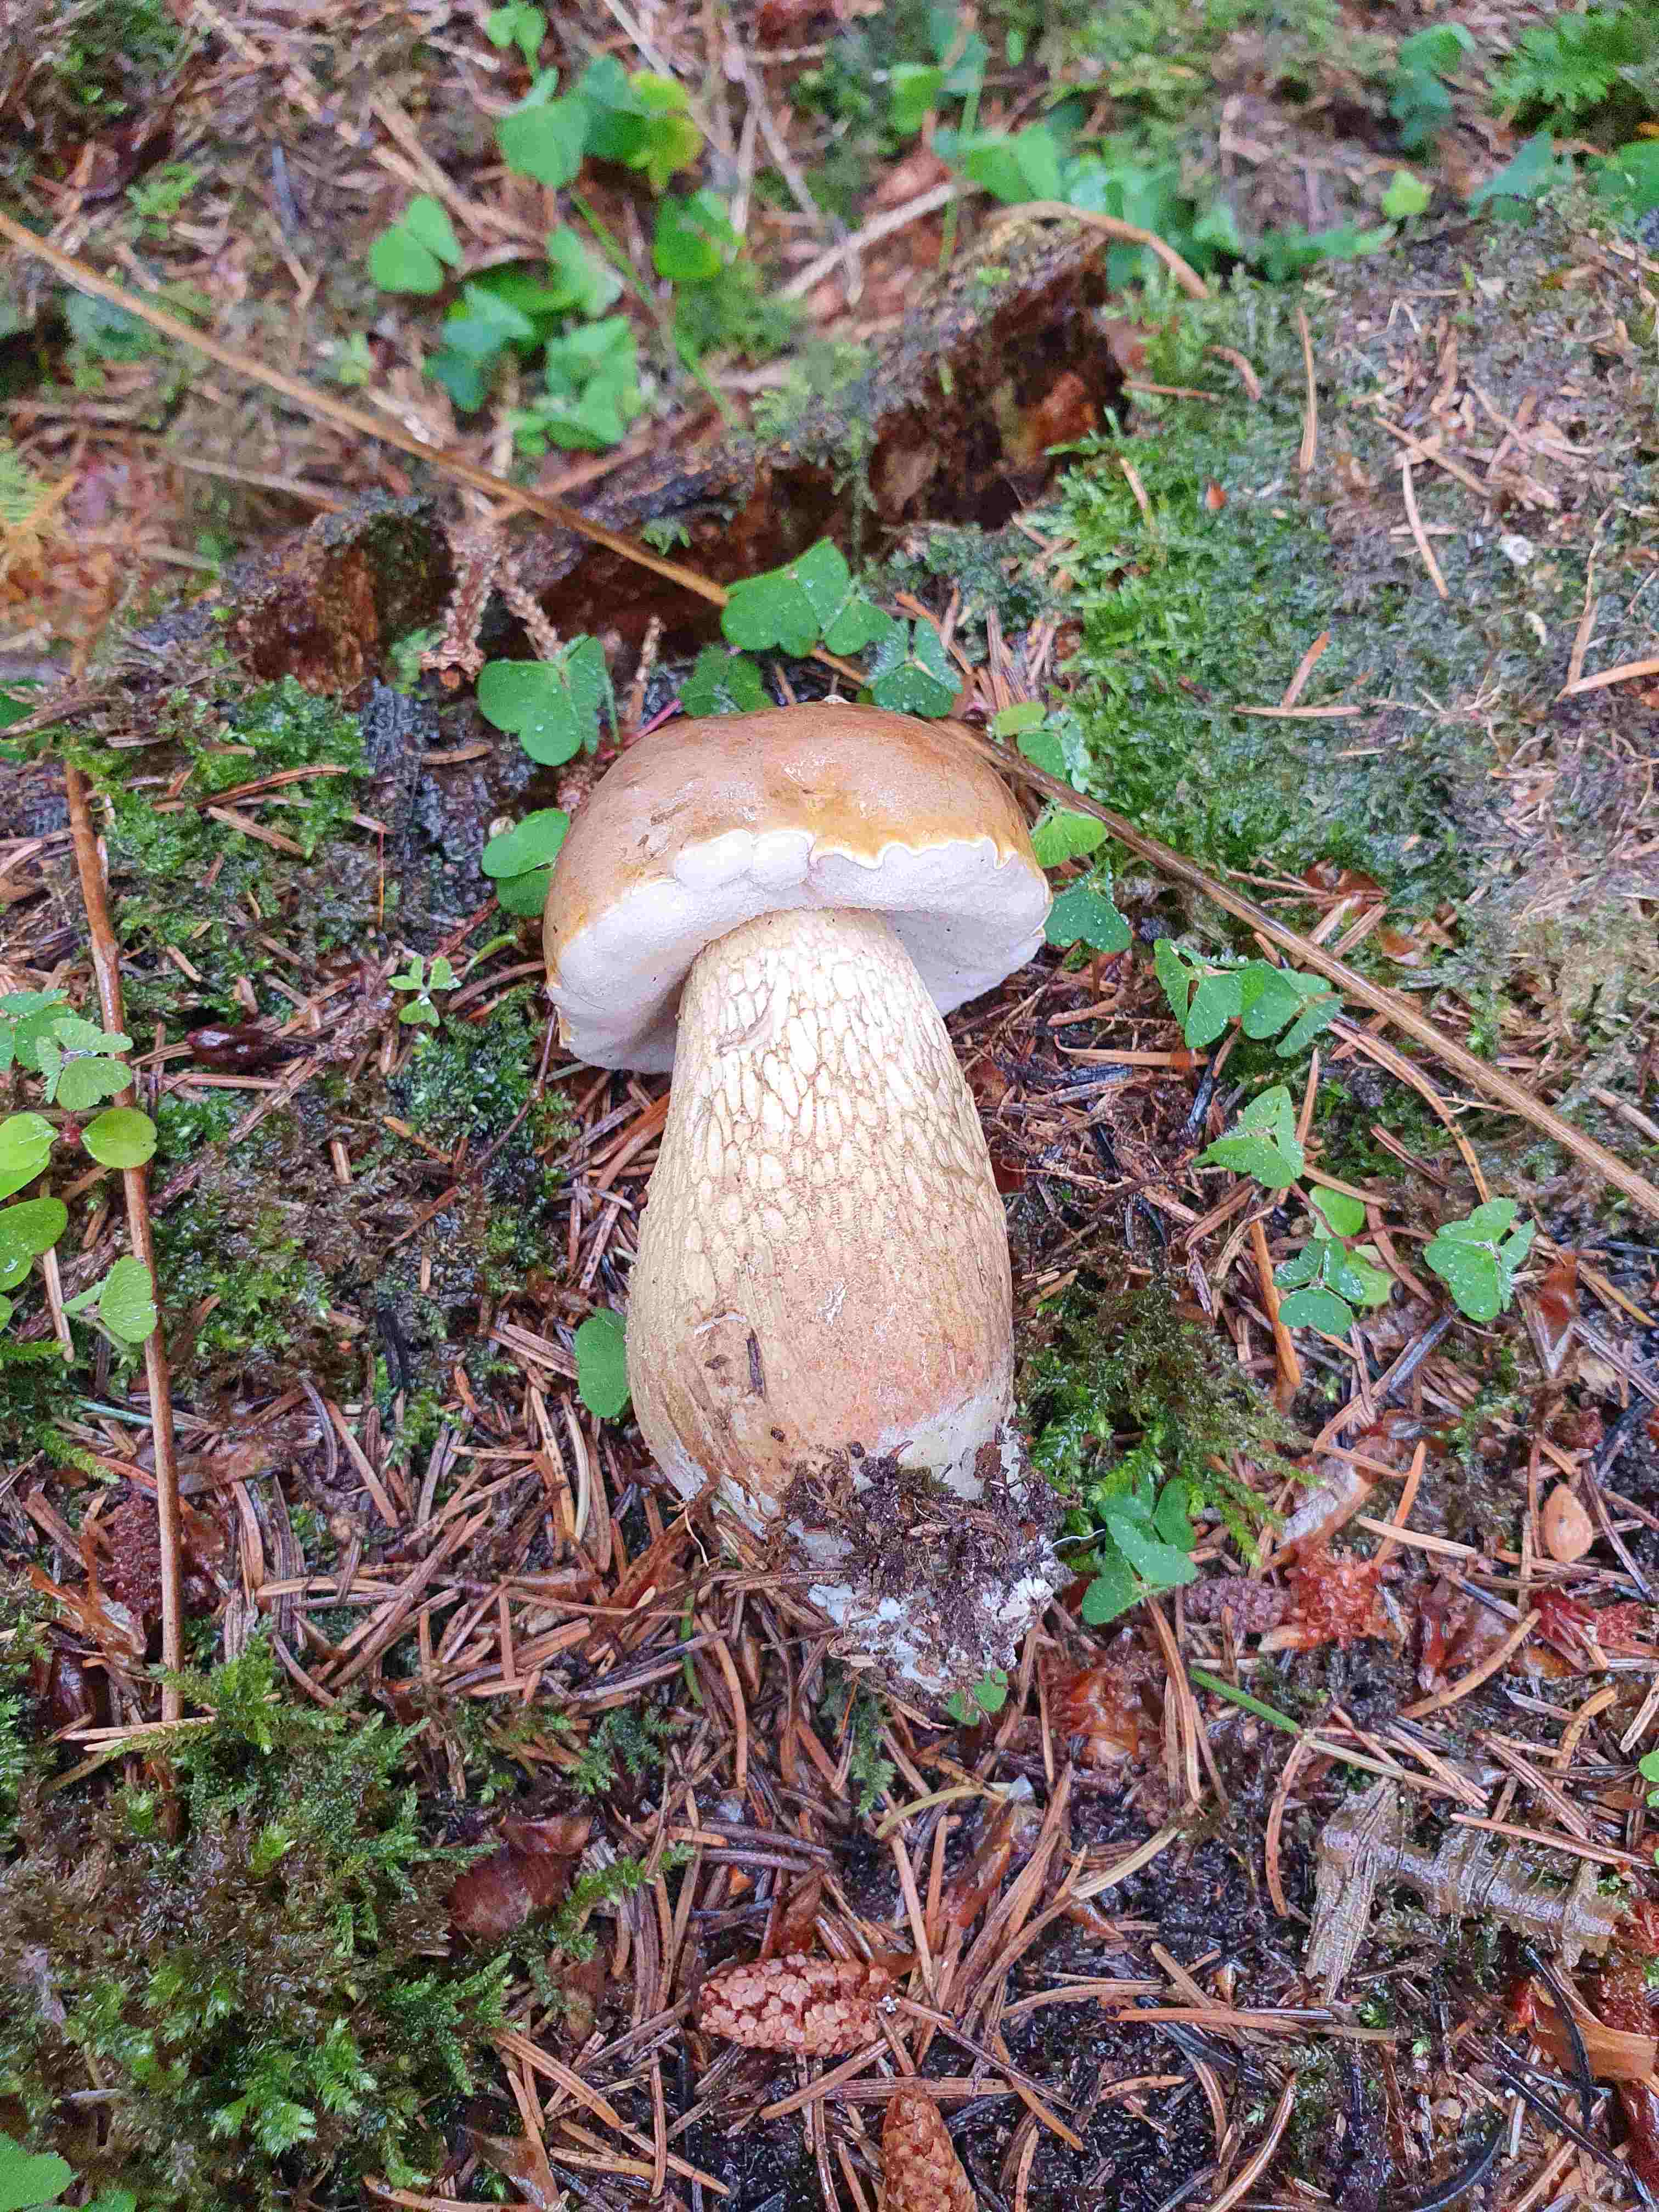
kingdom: Fungi
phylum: Basidiomycota
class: Agaricomycetes
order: Boletales
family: Boletaceae
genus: Tylopilus
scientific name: Tylopilus felleus
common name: galderørhat
